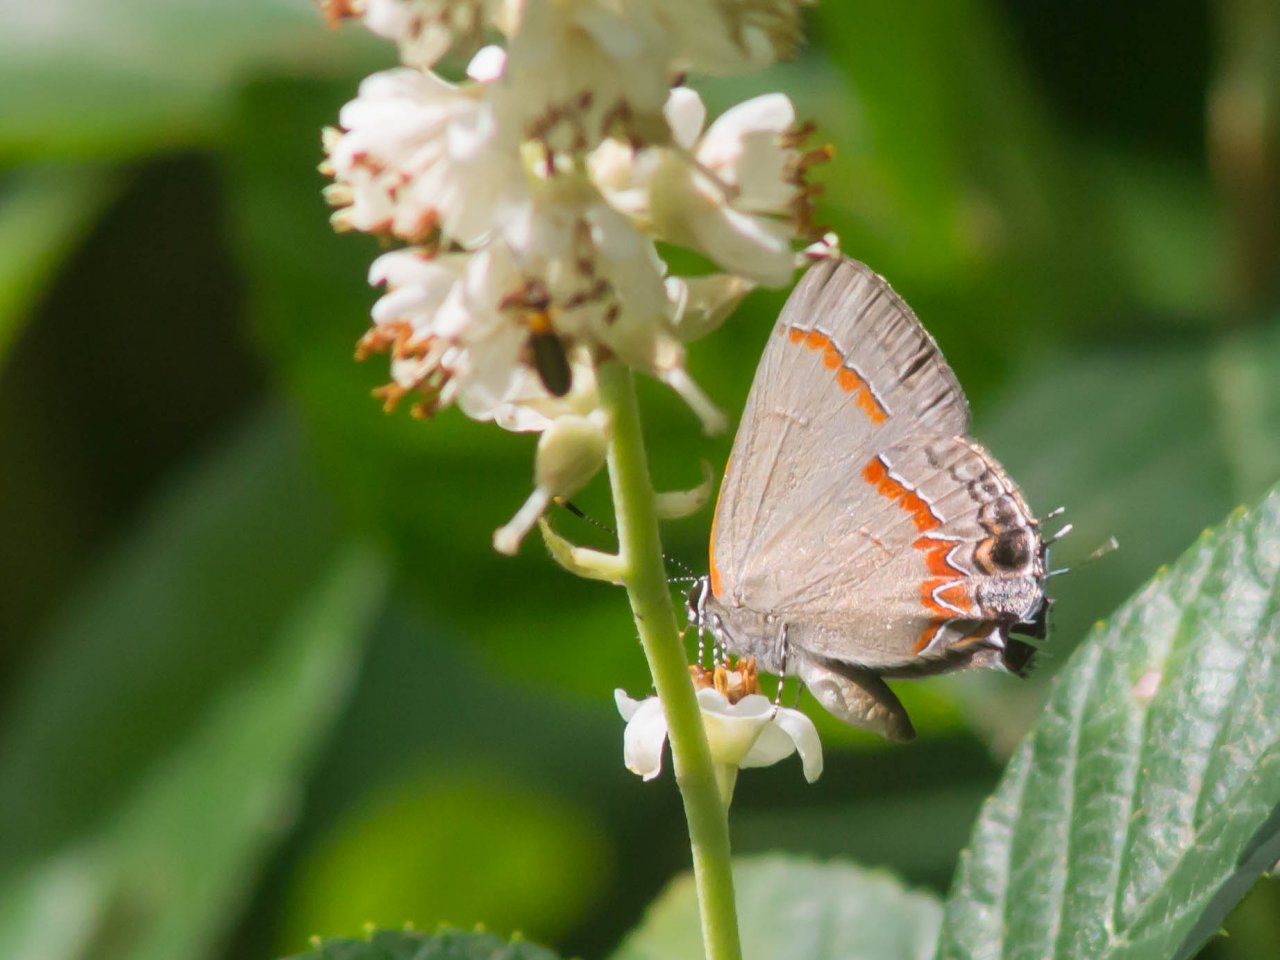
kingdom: Animalia
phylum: Arthropoda
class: Insecta
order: Lepidoptera
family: Lycaenidae
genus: Calycopis
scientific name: Calycopis cecrops
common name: Red-banded Hairstreak
